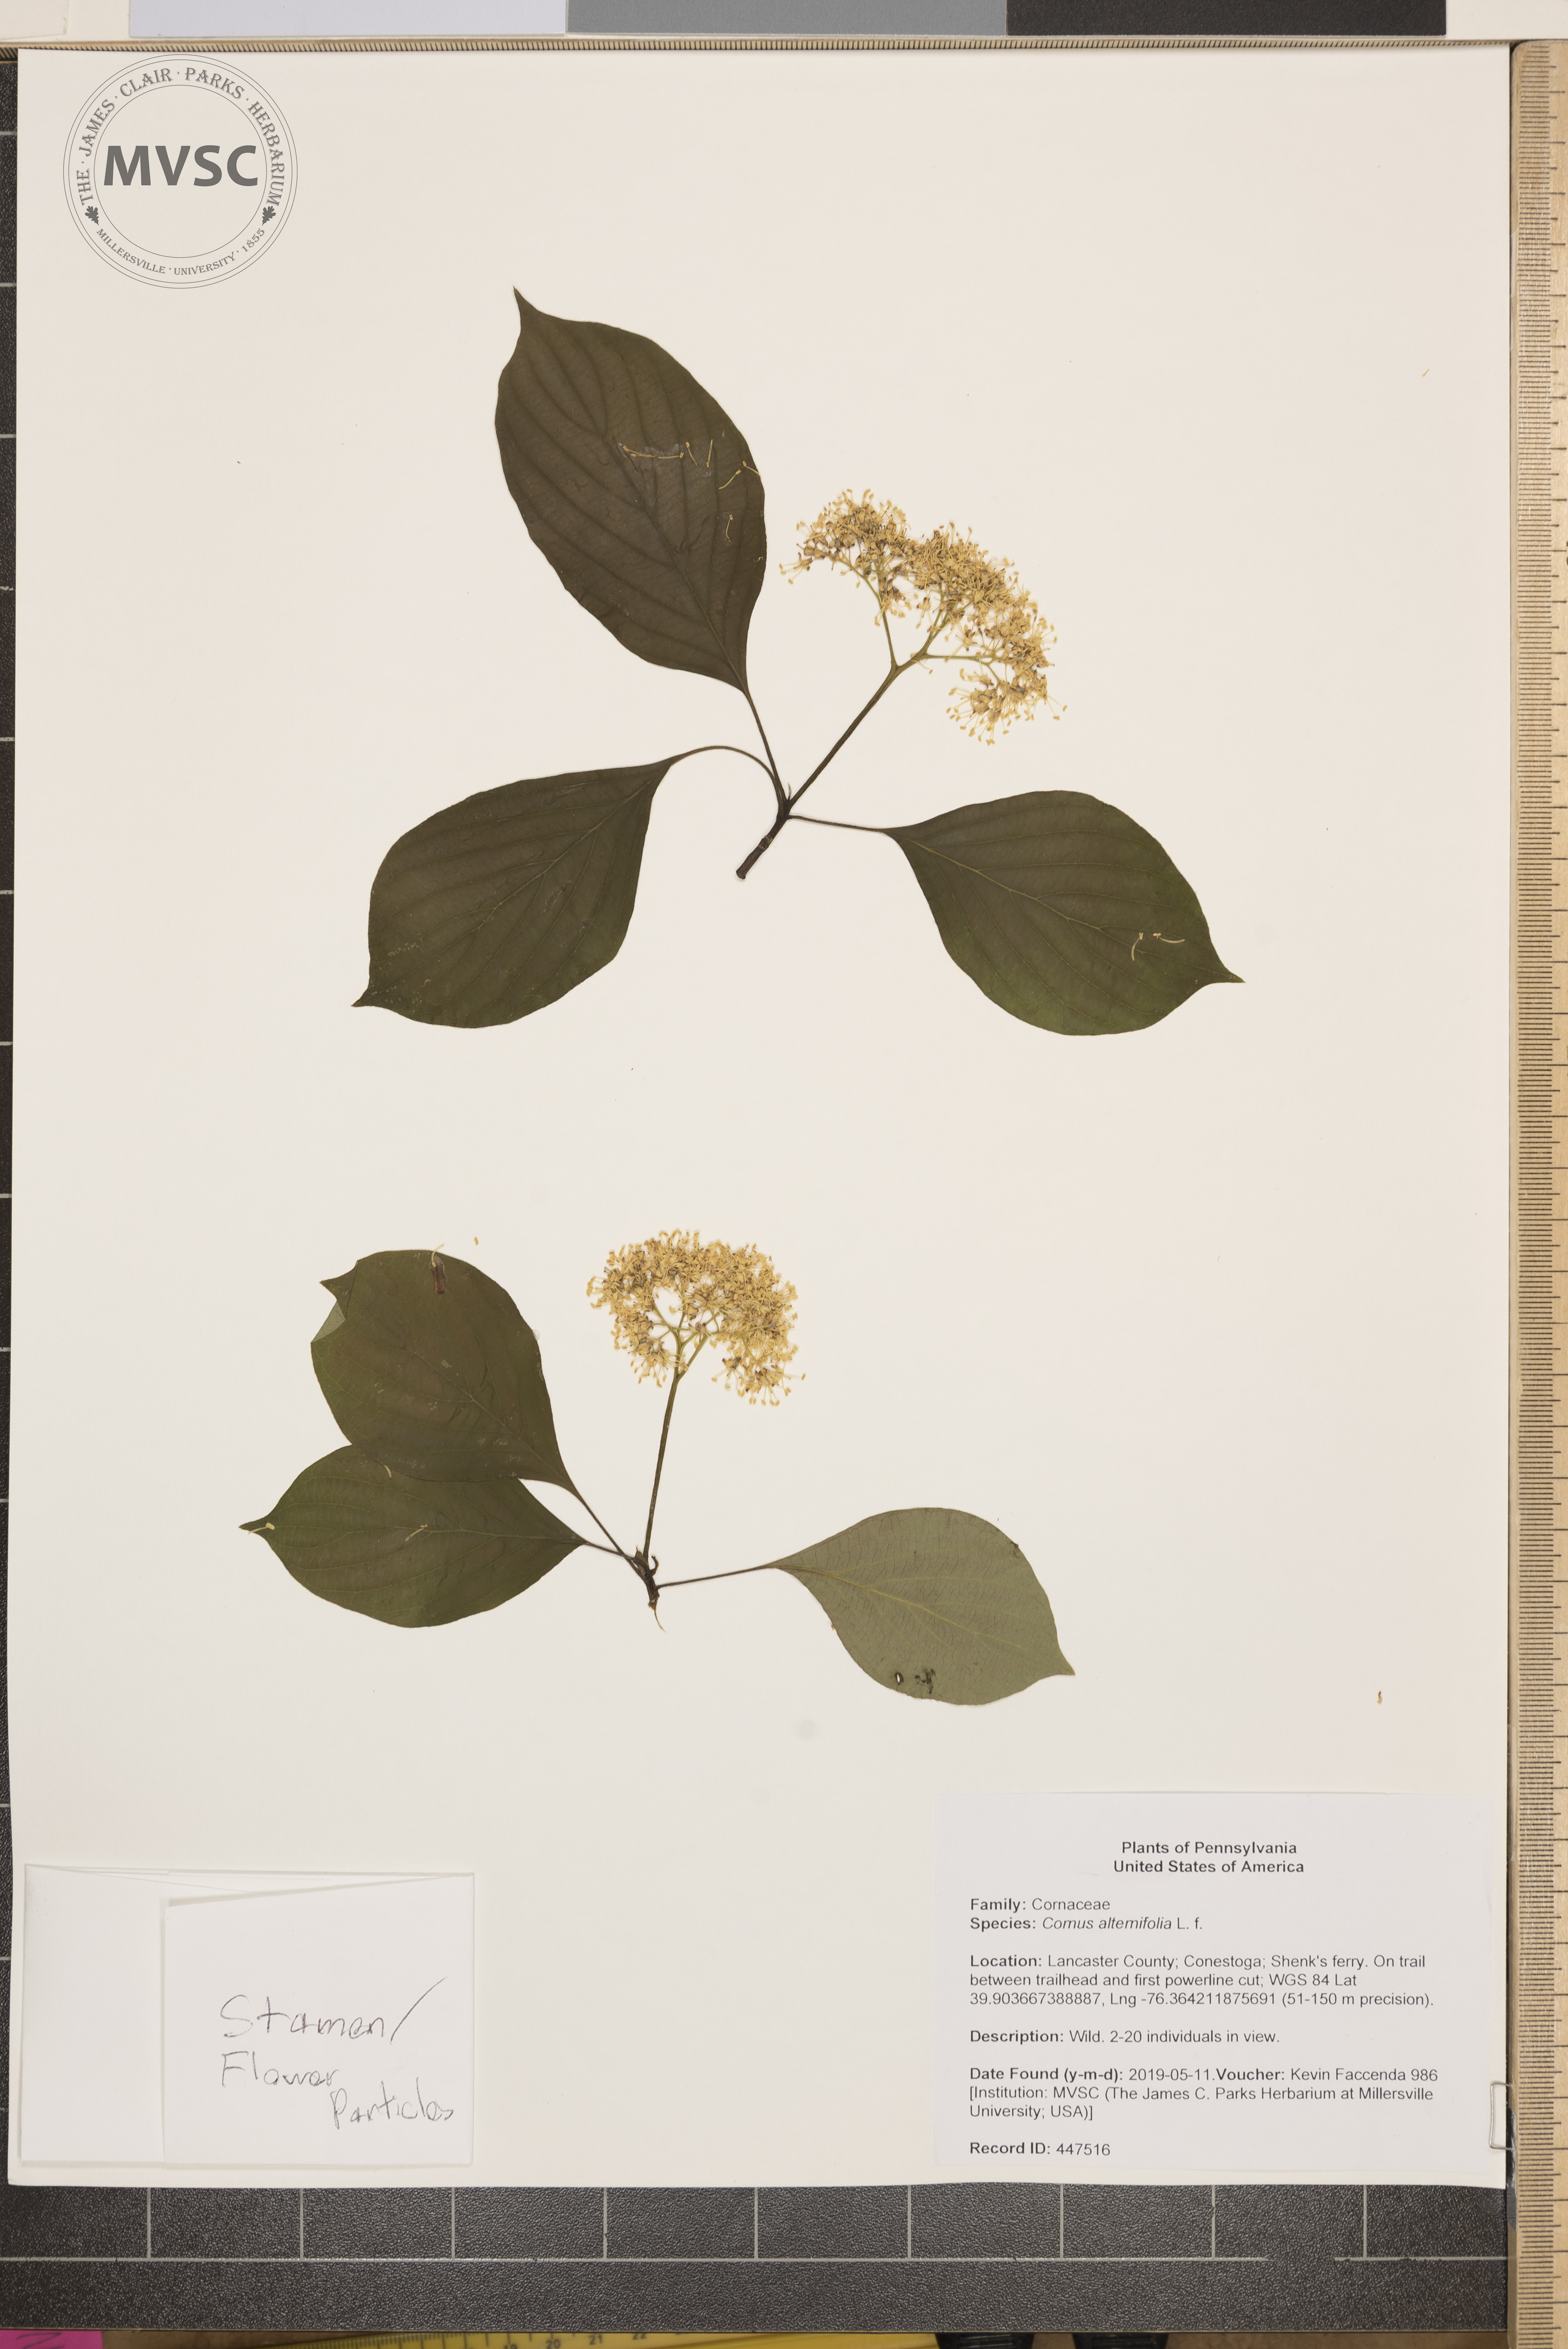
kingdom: Plantae
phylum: Tracheophyta
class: Magnoliopsida
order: Cornales
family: Cornaceae
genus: Cornus
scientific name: Cornus alternifolia
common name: Pagoda dogwood
